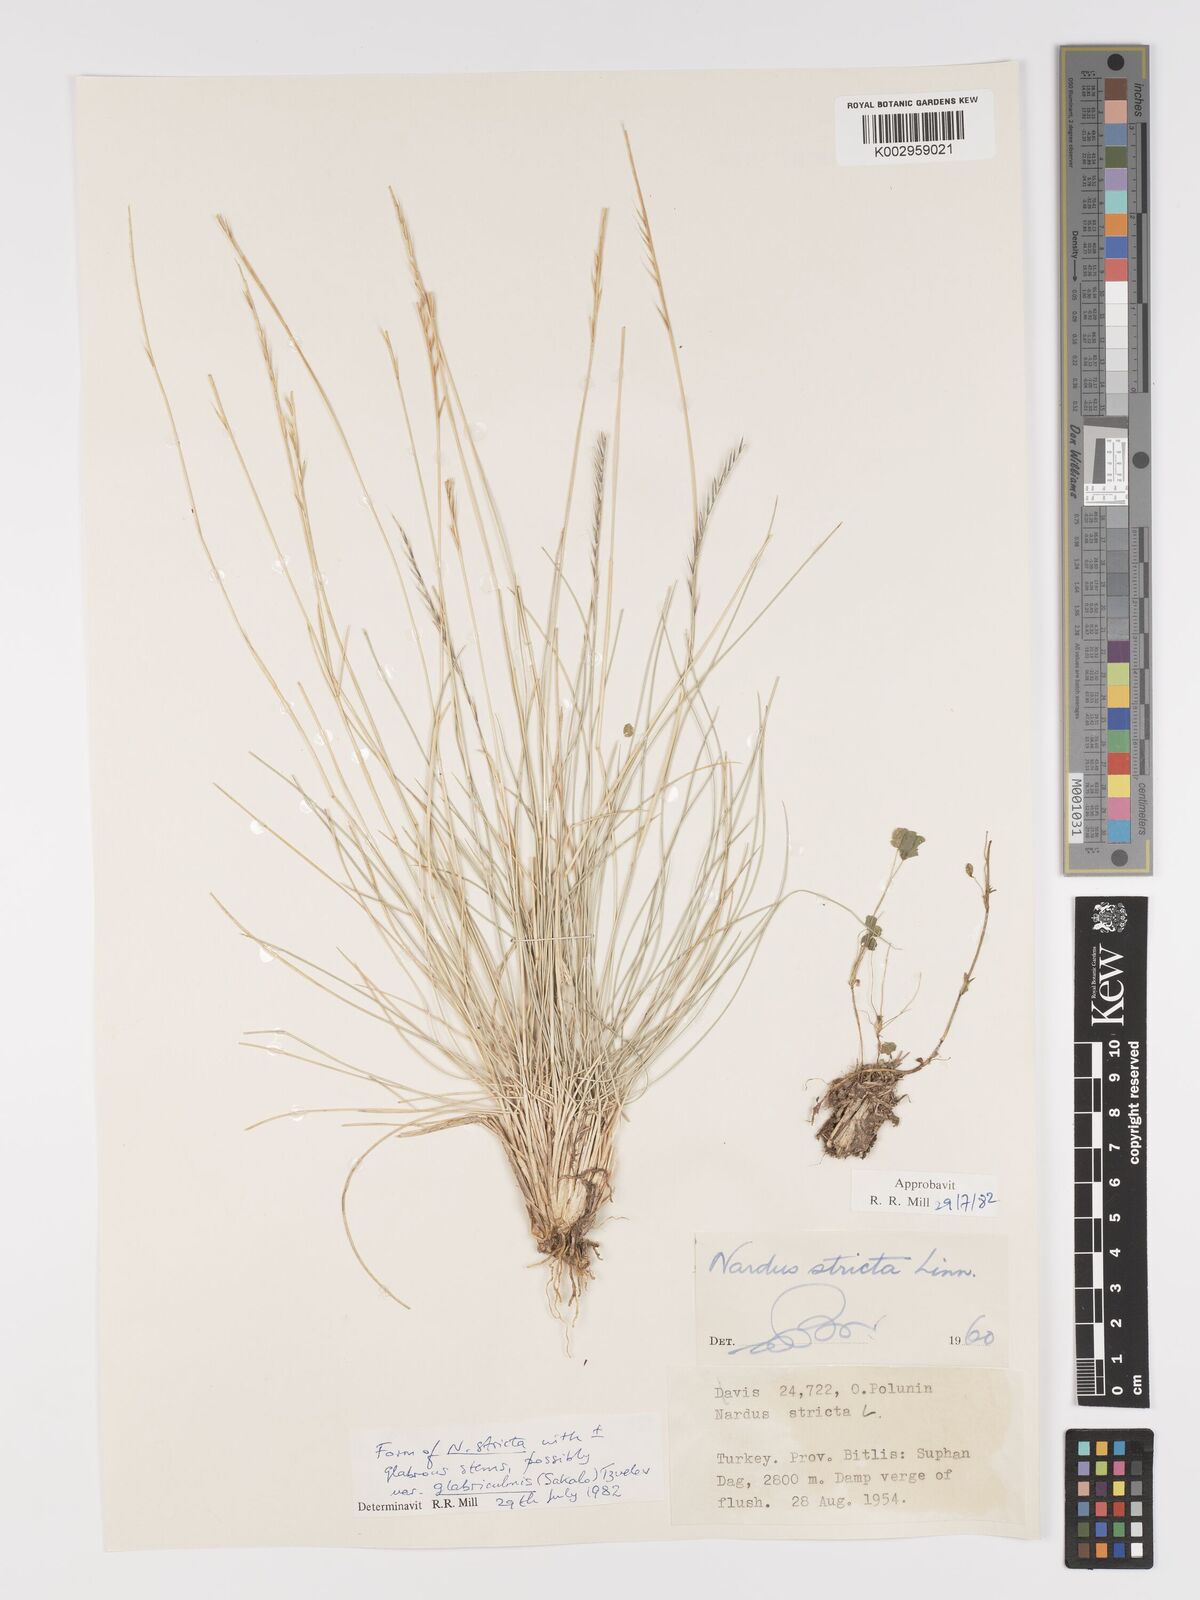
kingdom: Plantae
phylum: Tracheophyta
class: Liliopsida
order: Poales
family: Poaceae
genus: Nardus
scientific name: Nardus stricta
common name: Mat-grass
